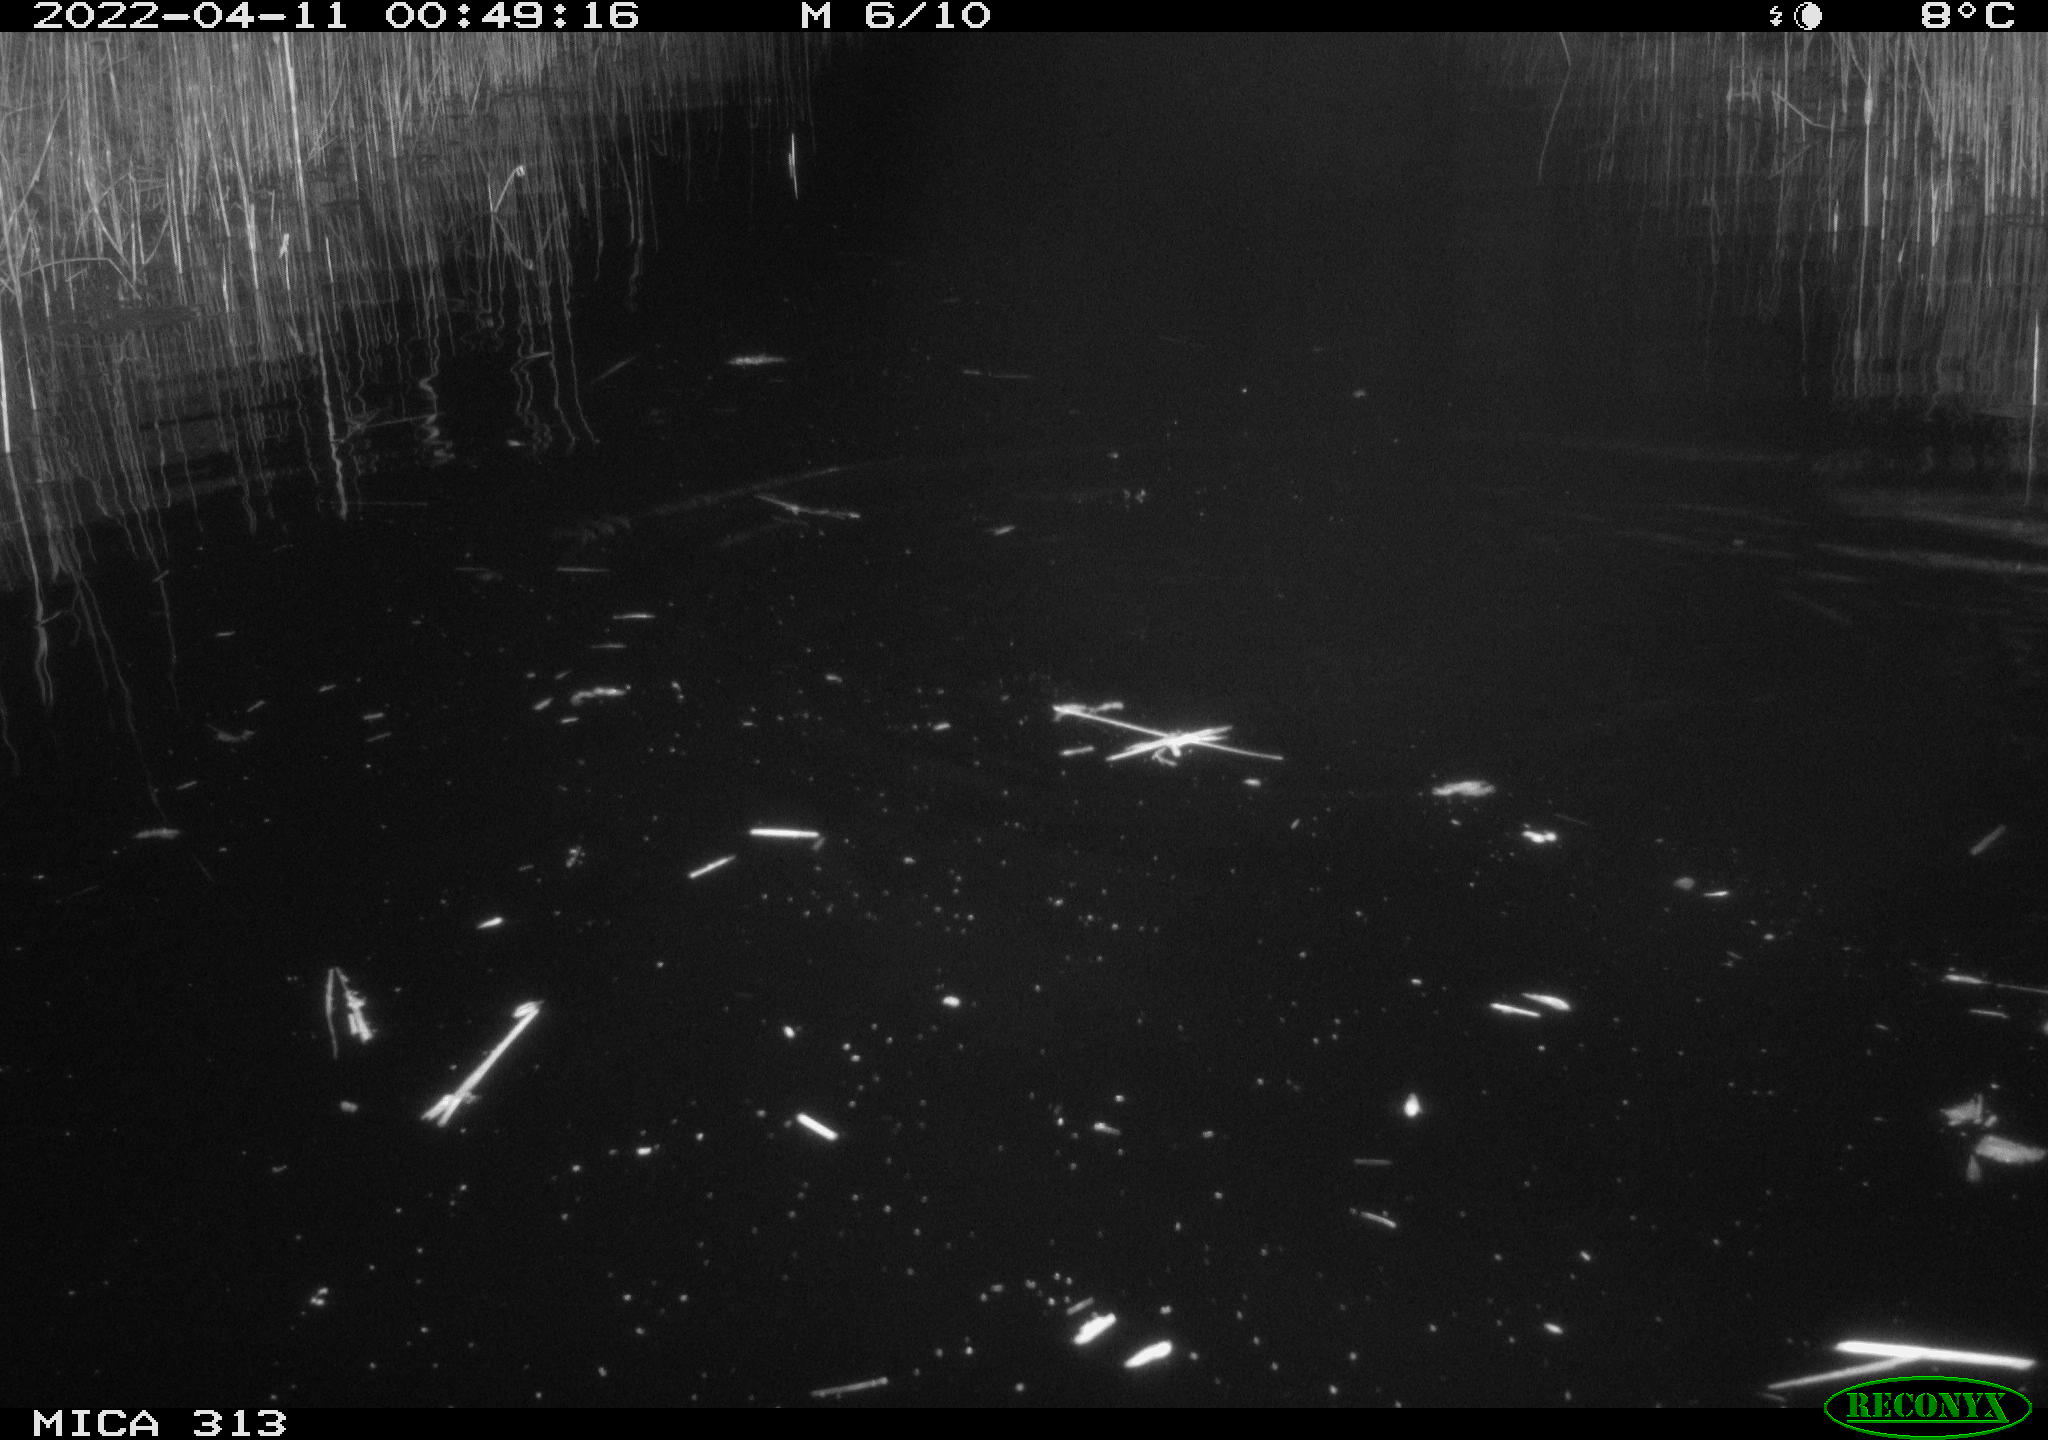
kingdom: Animalia
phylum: Chordata
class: Mammalia
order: Rodentia
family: Cricetidae
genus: Ondatra
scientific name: Ondatra zibethicus
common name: Muskrat
